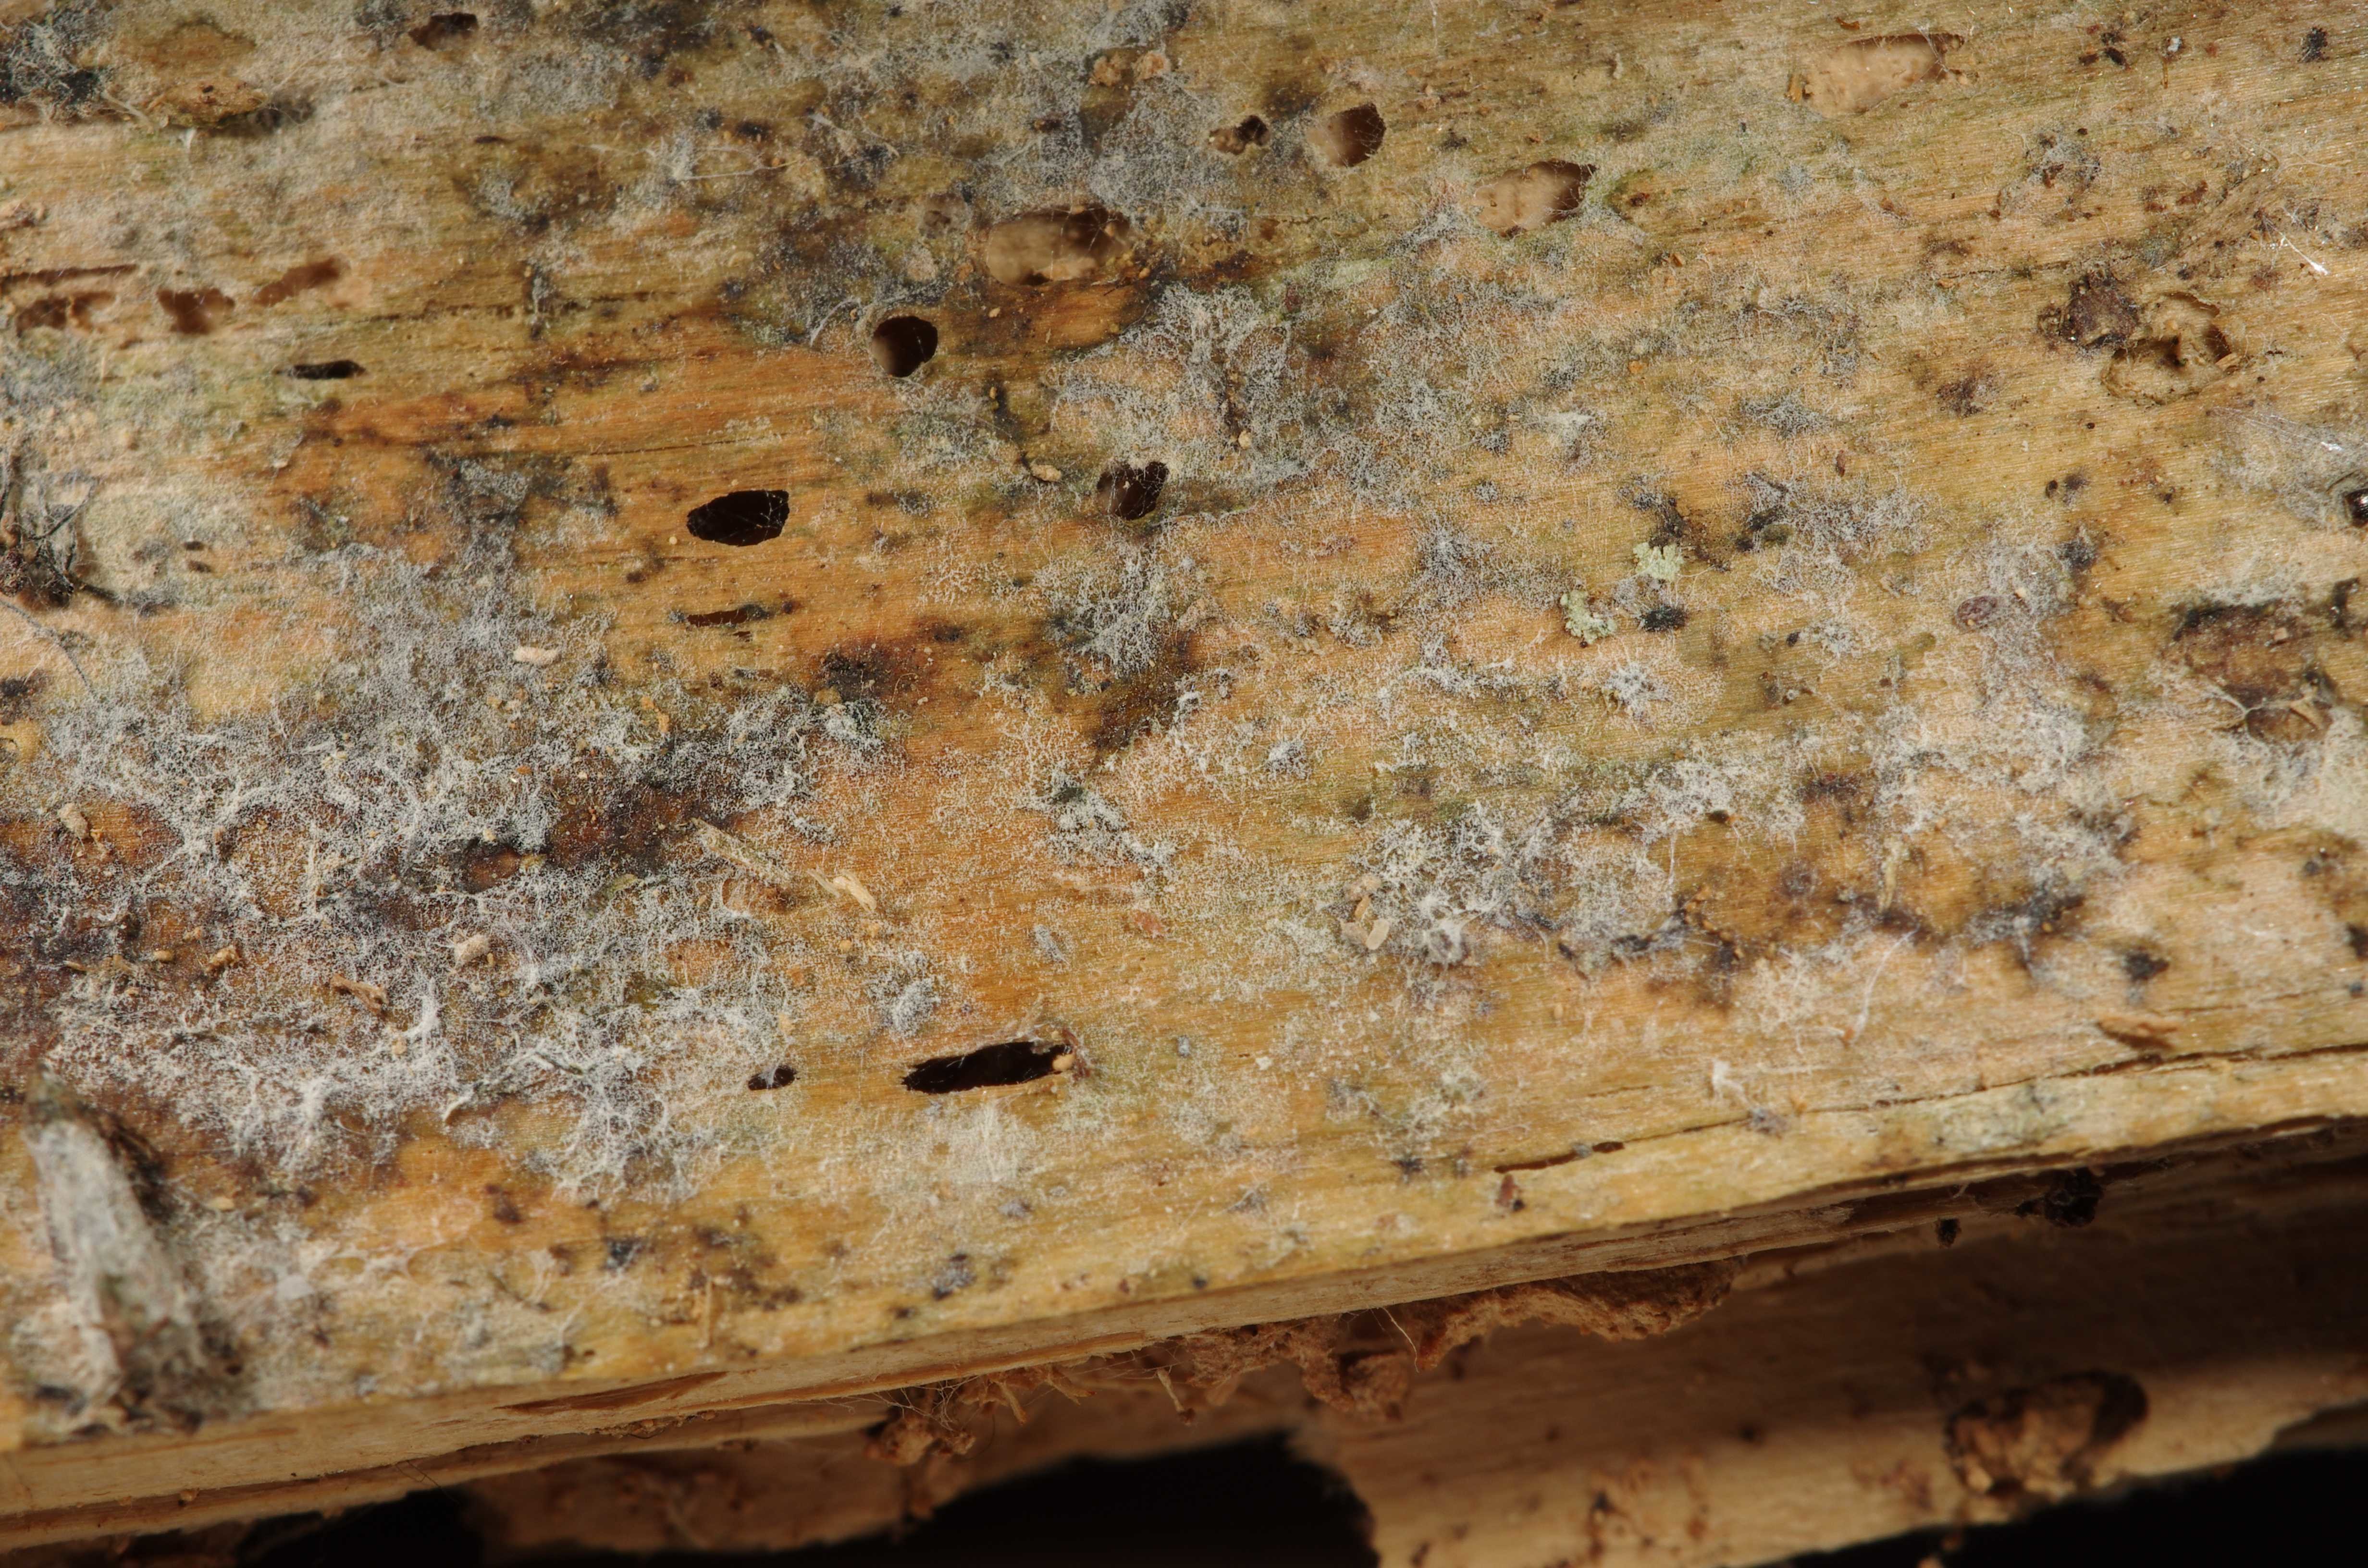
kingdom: Fungi
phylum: Basidiomycota
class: Agaricomycetes
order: Polyporales
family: Hyphodermataceae
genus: Hyphoderma
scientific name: Hyphoderma
